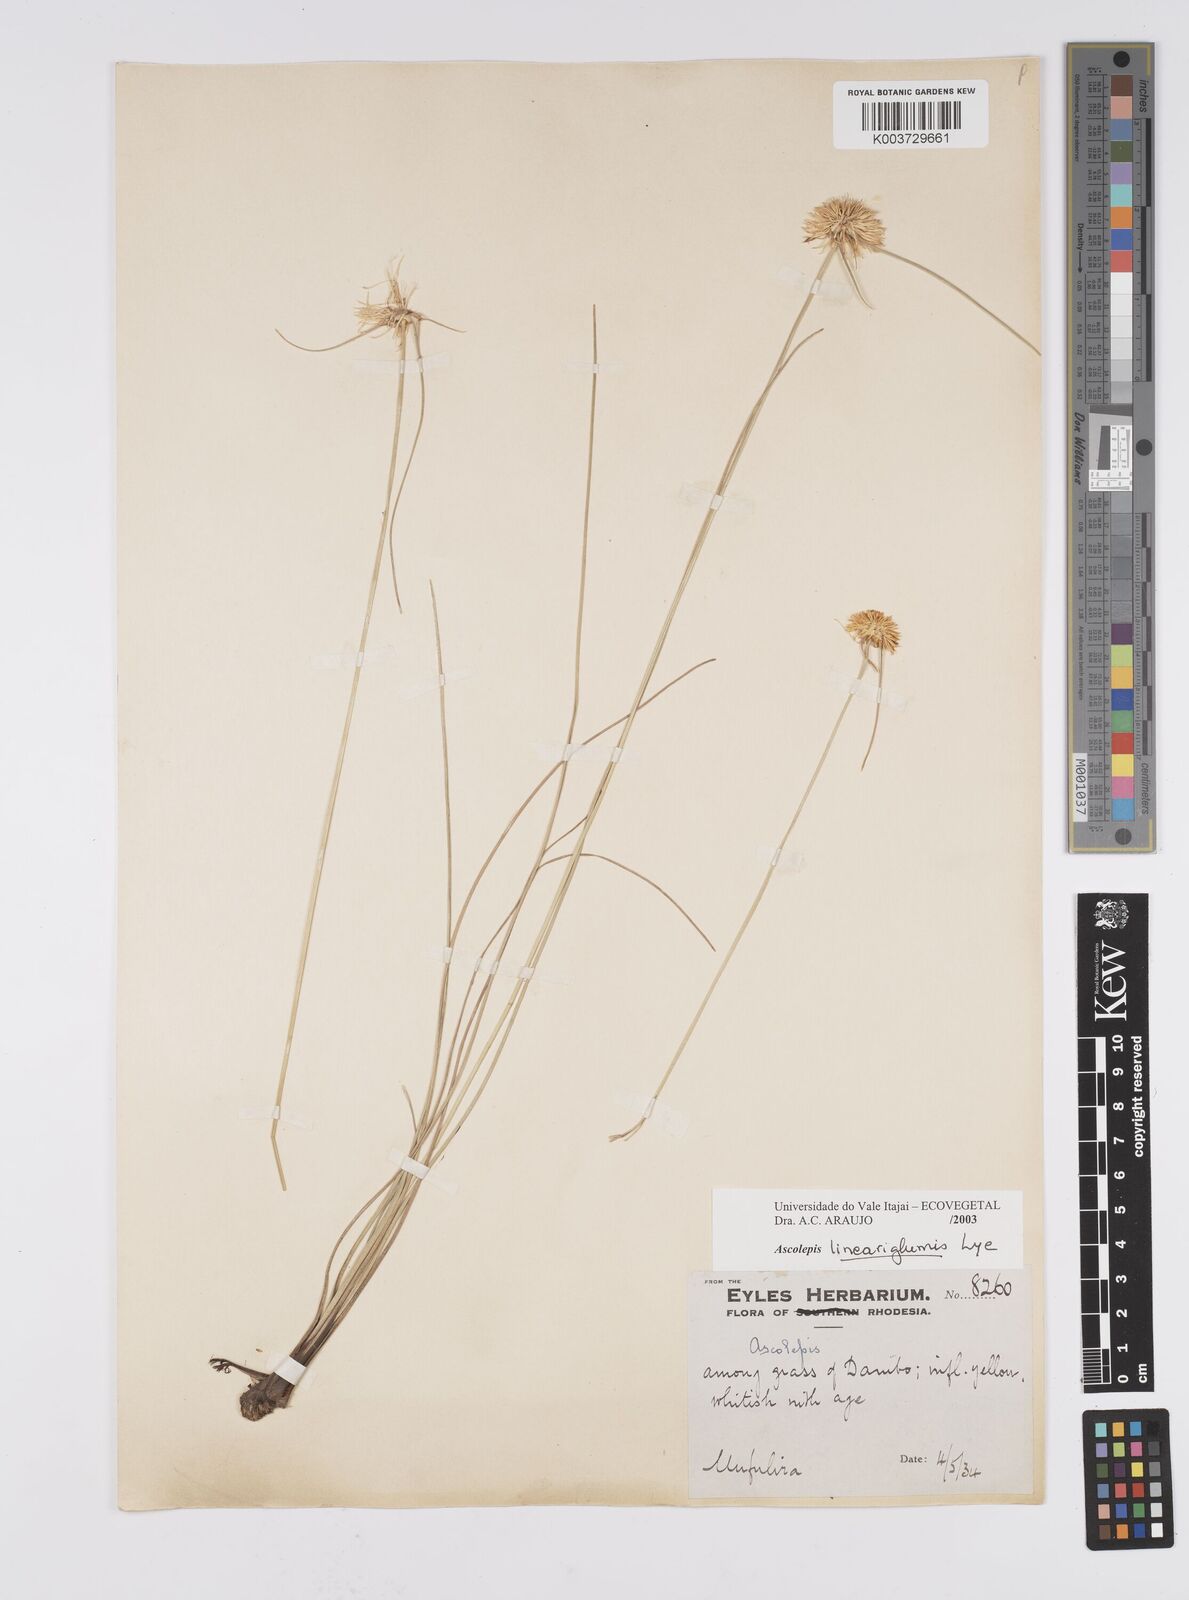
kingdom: Plantae
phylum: Tracheophyta
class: Liliopsida
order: Poales
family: Cyperaceae
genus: Cyperus
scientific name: Cyperus
